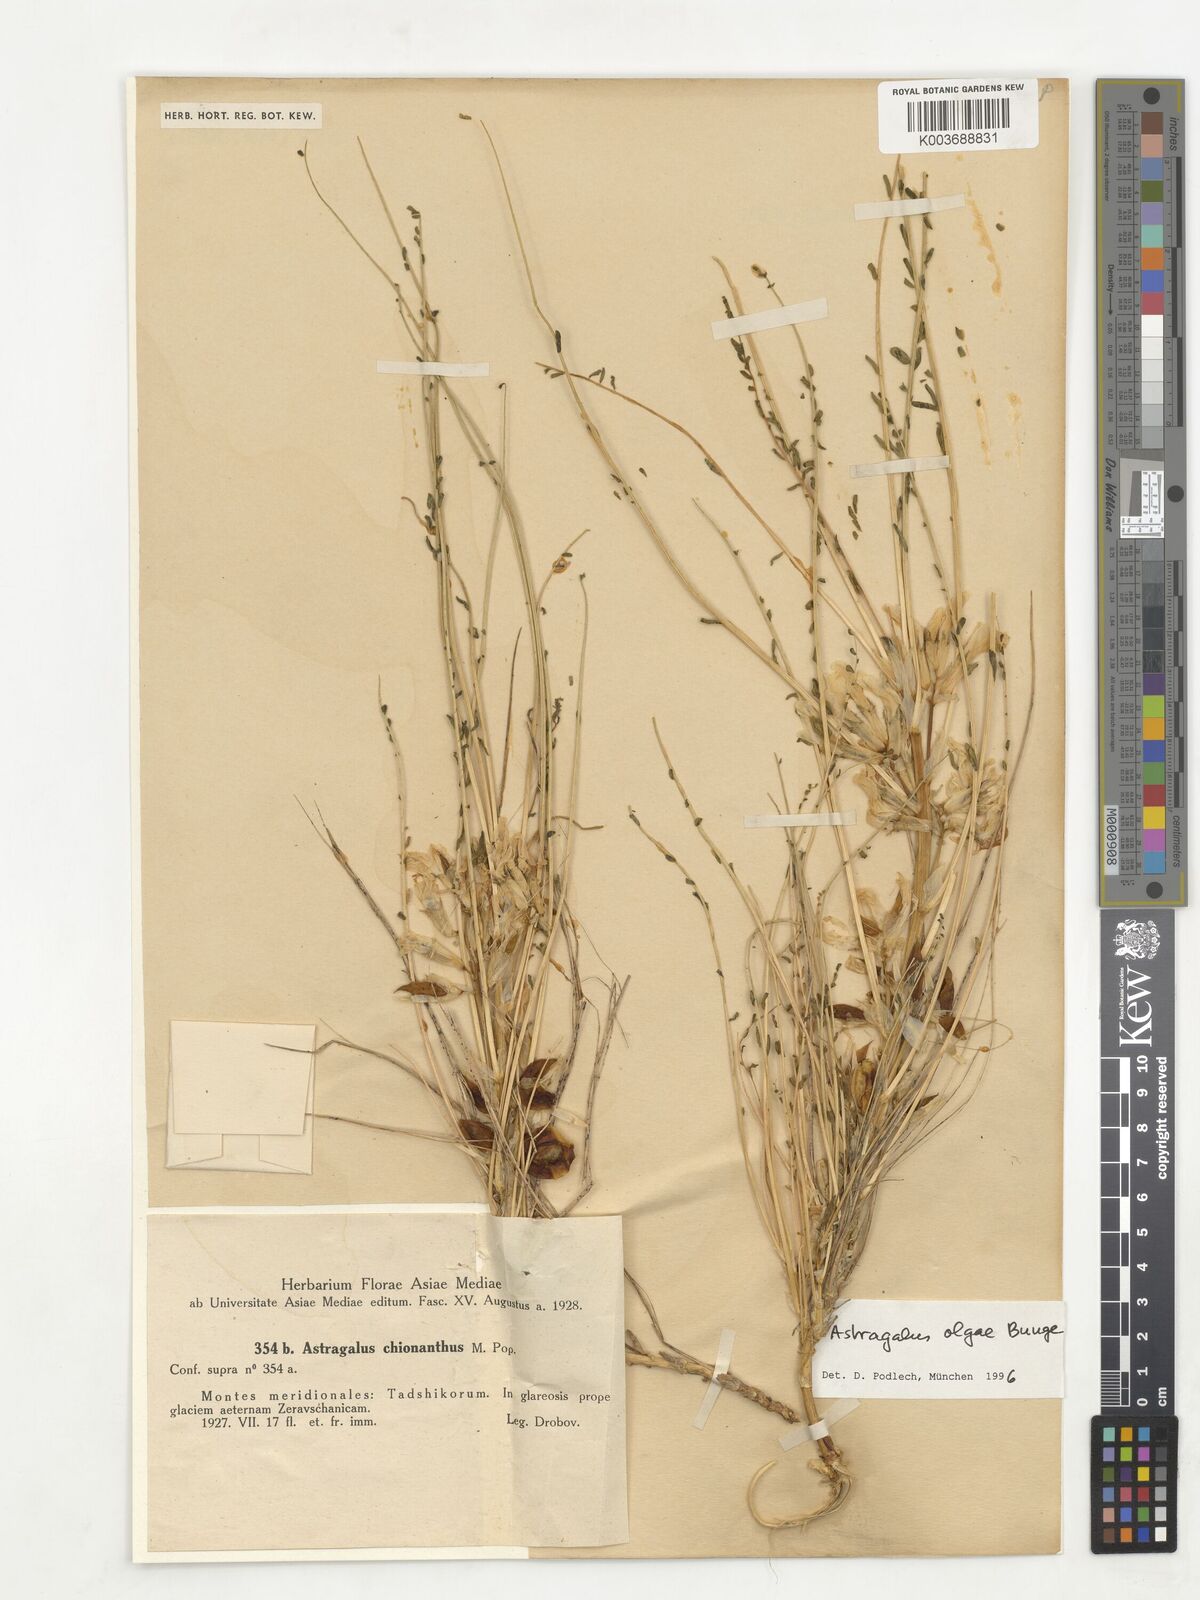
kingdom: Plantae
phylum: Tracheophyta
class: Magnoliopsida
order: Fabales
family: Fabaceae
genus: Astragalus
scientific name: Astragalus olgae
